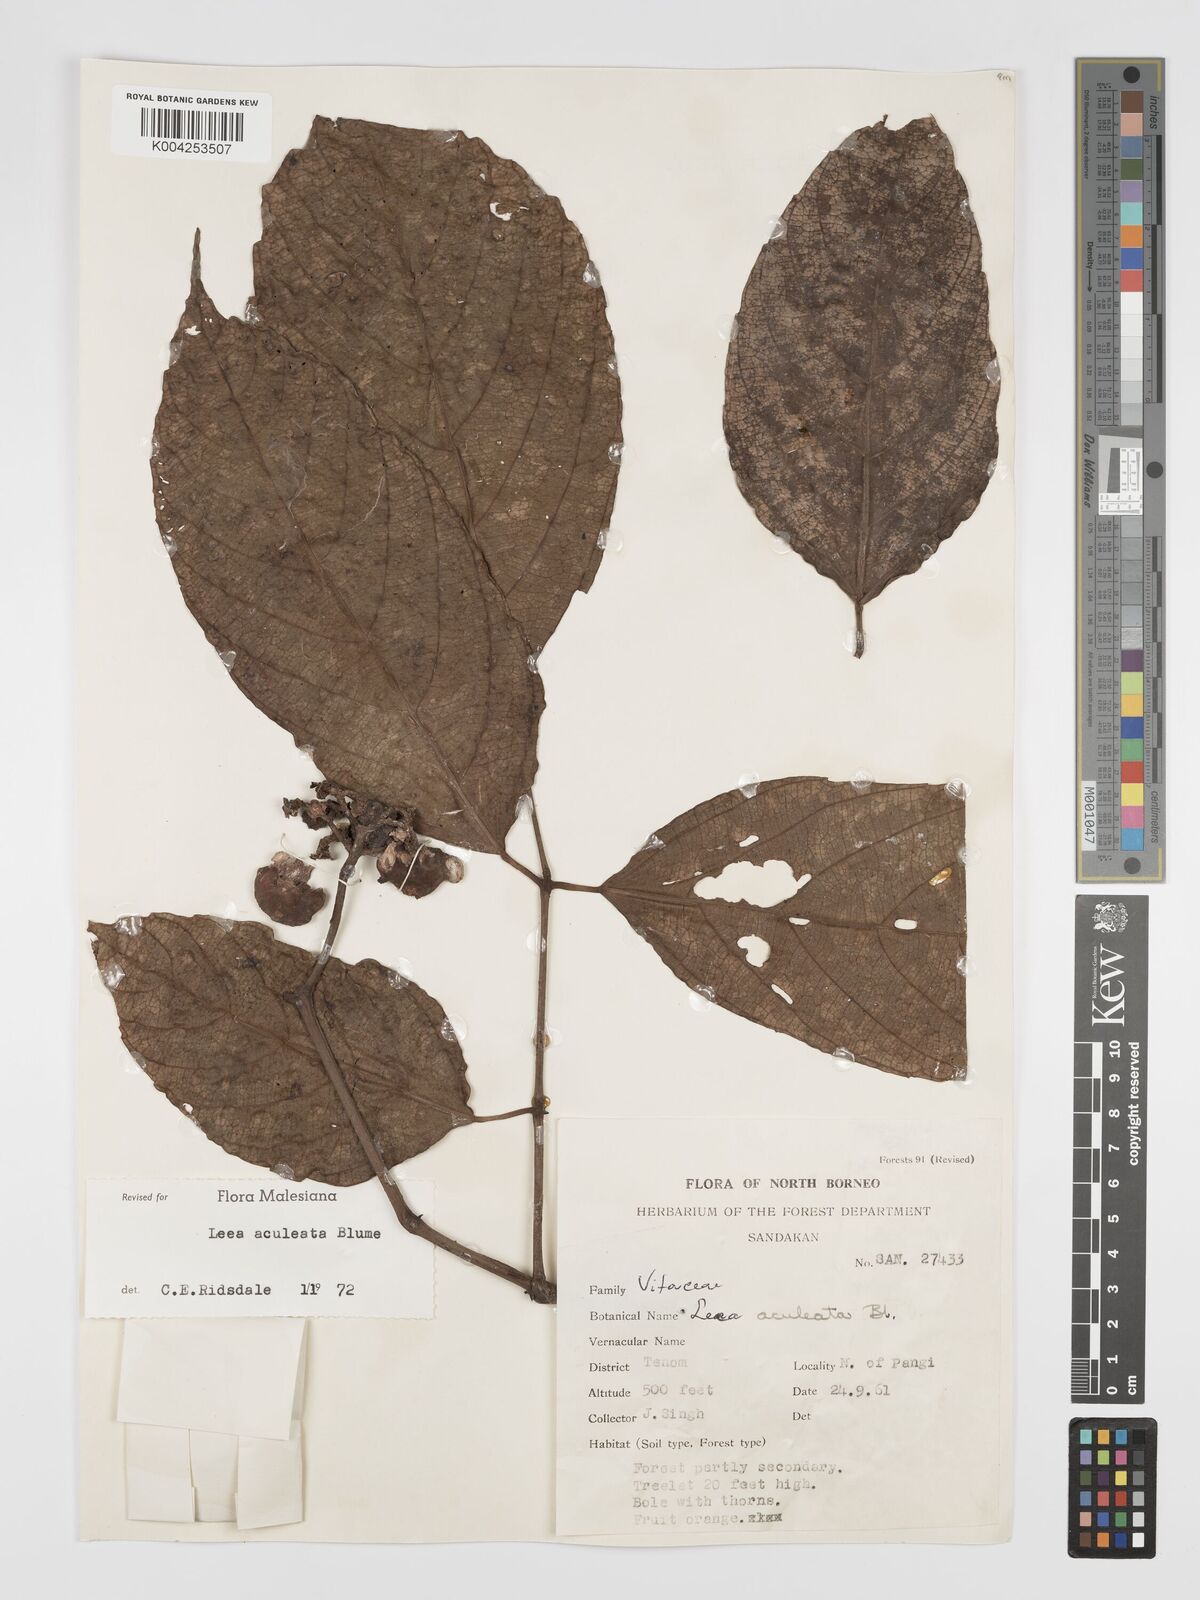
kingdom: Plantae
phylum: Tracheophyta
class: Magnoliopsida
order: Vitales
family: Vitaceae
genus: Leea
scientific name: Leea aculeata
